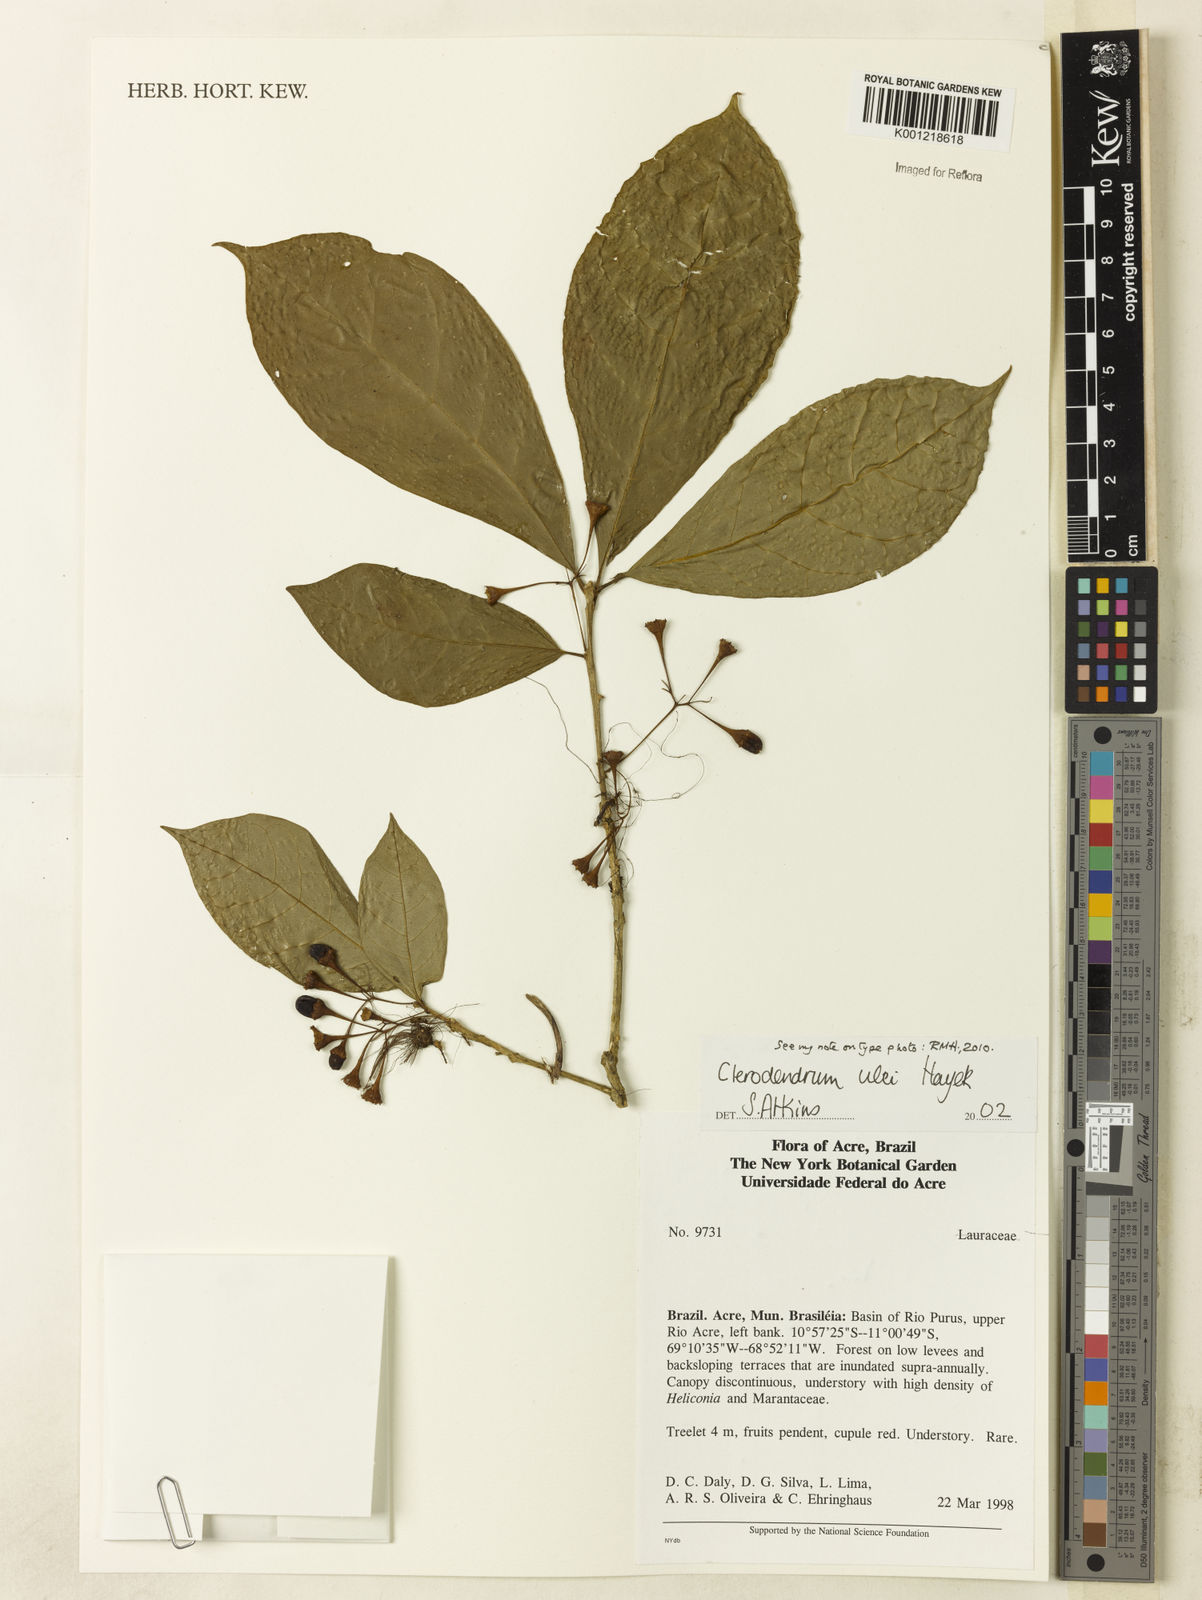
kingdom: Plantae
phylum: Tracheophyta
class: Magnoliopsida
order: Lamiales
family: Lamiaceae
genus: Aegiphila
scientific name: Aegiphila ulei
